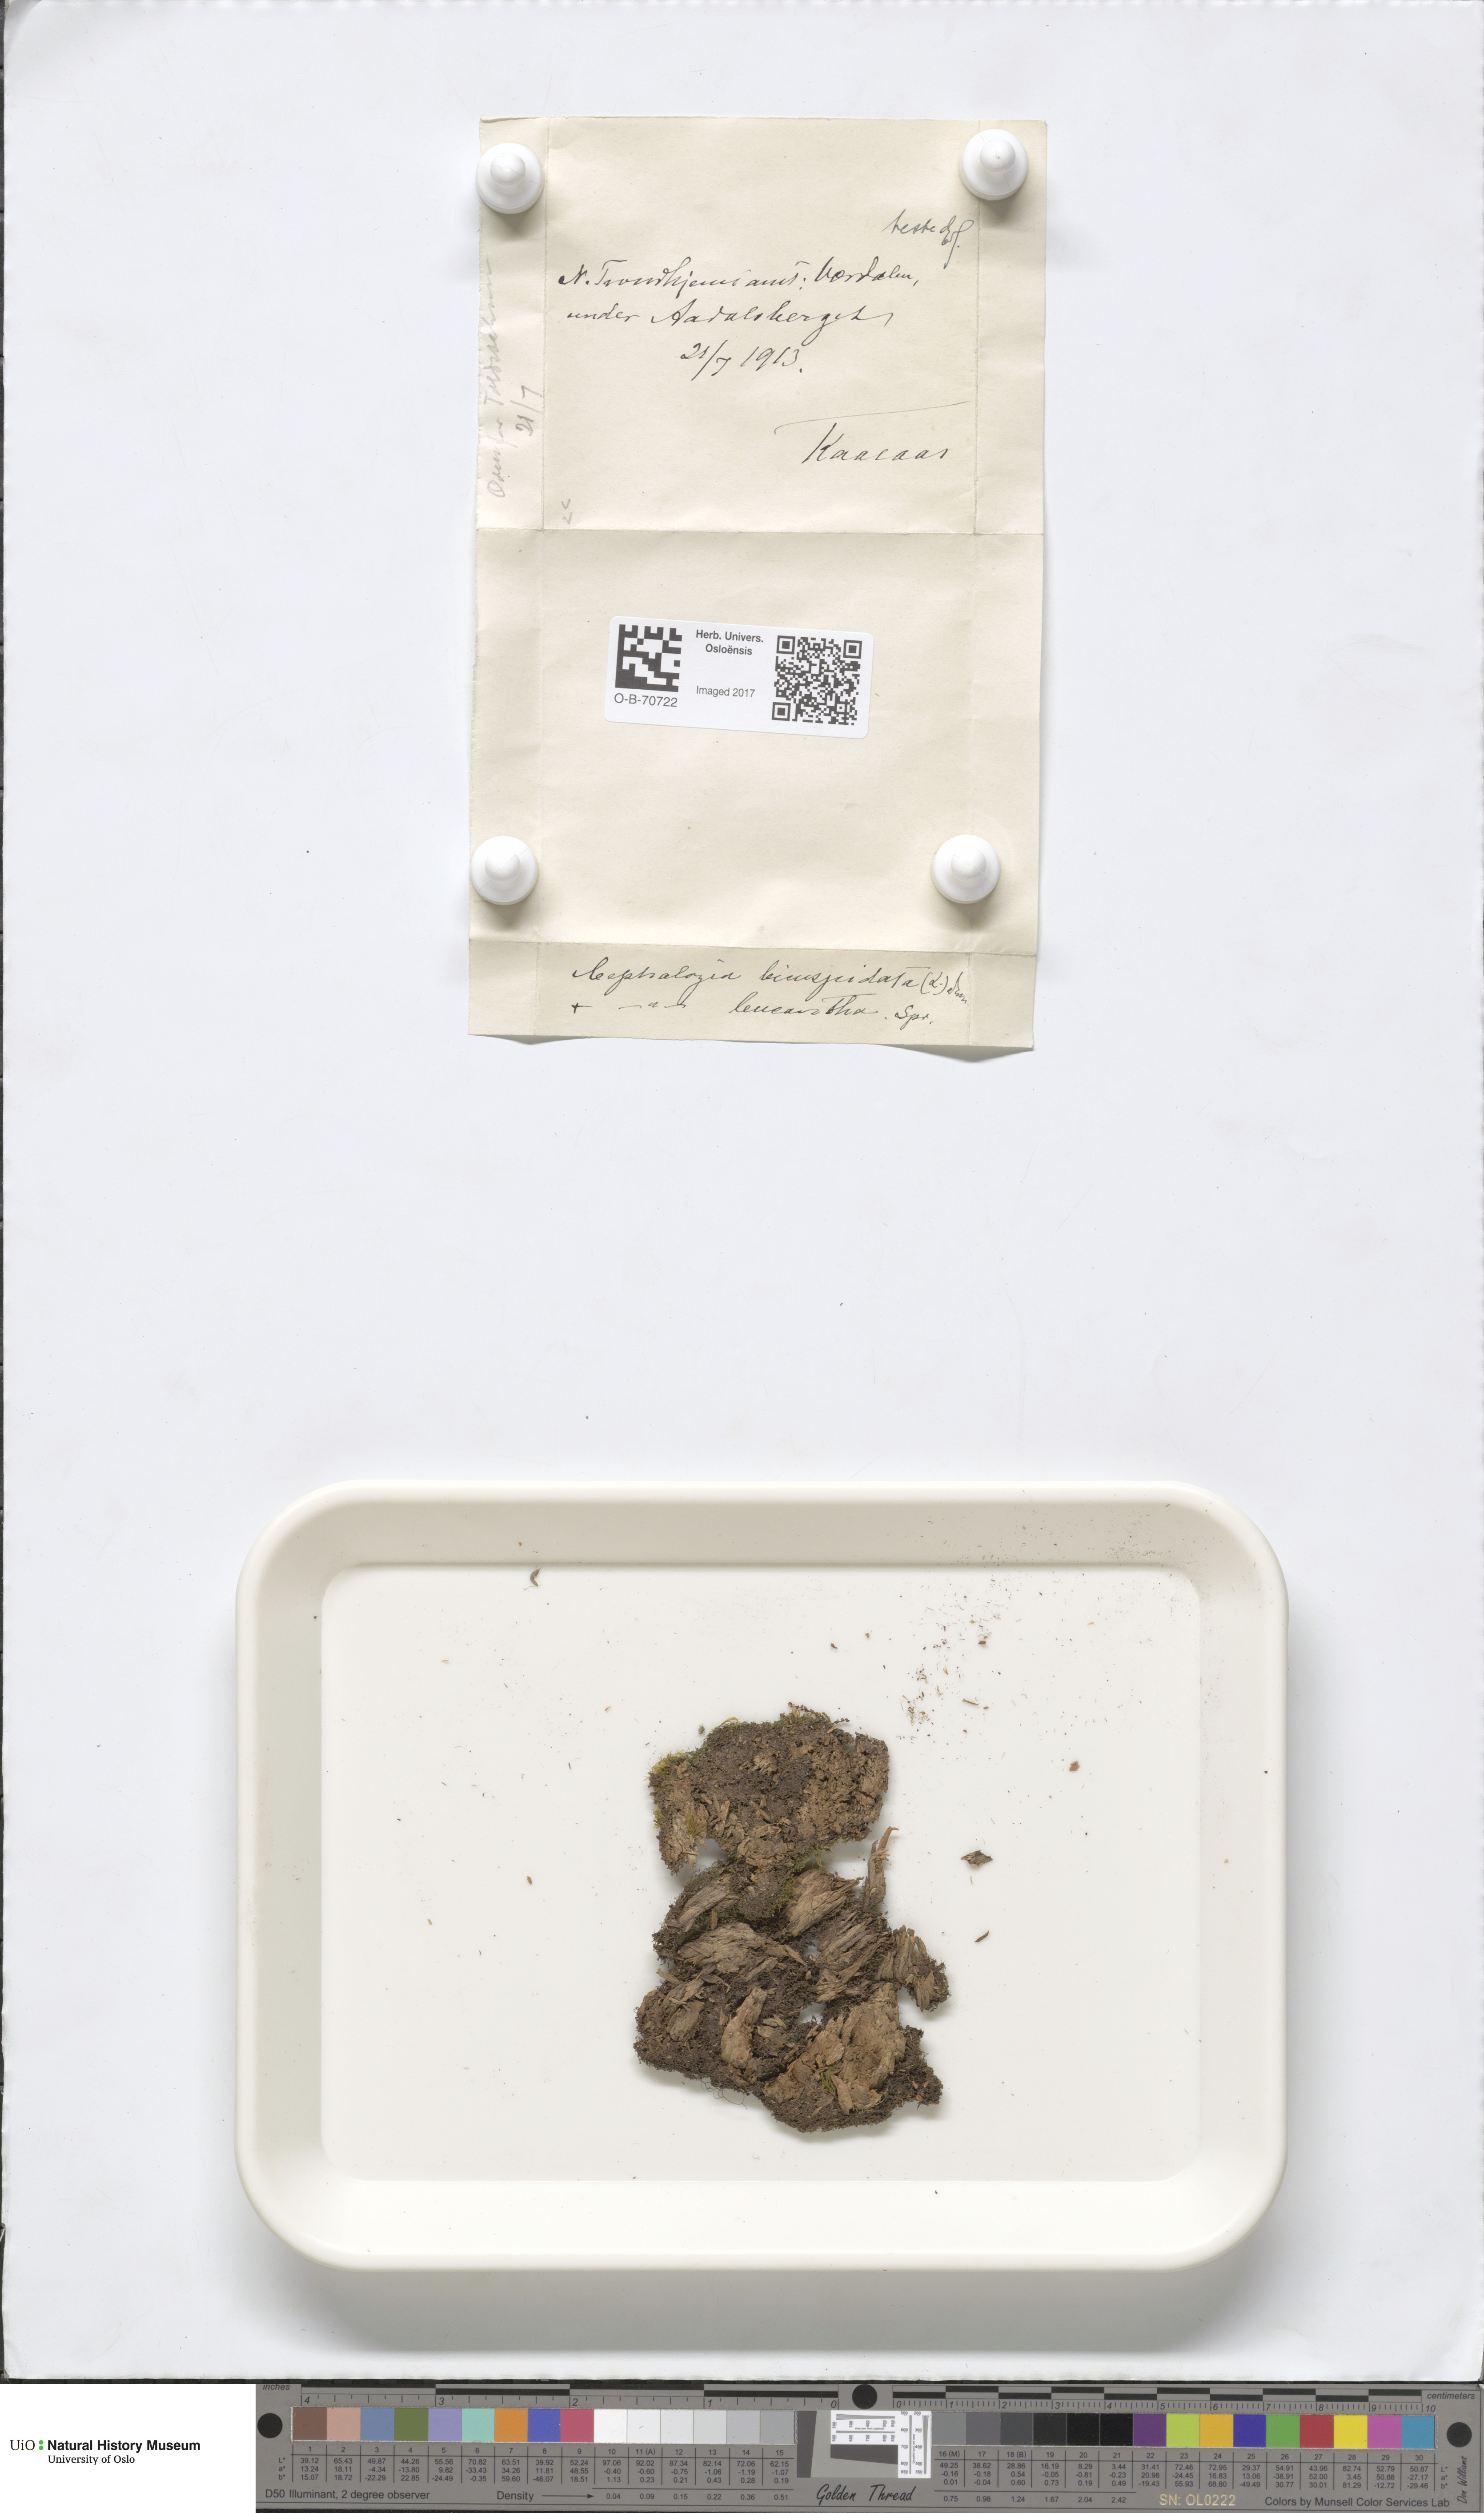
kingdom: Plantae
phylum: Marchantiophyta
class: Jungermanniopsida
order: Jungermanniales
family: Cephaloziaceae
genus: Fuscocephaloziopsis
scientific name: Fuscocephaloziopsis leucantha
